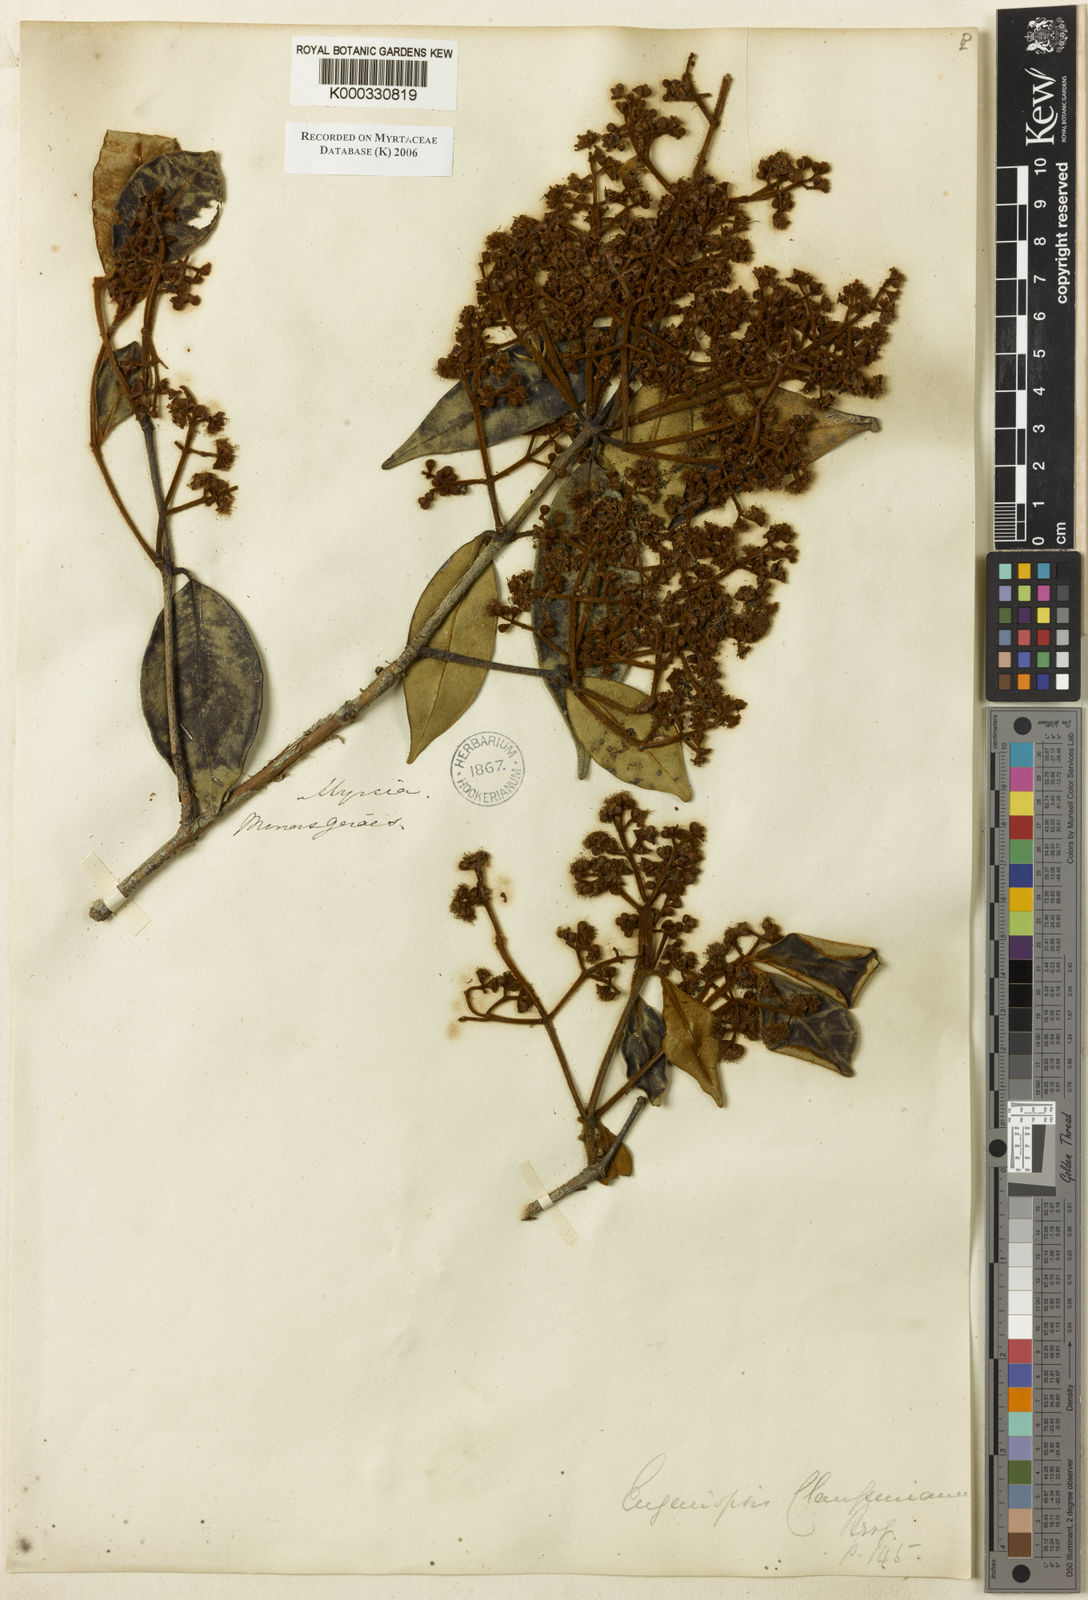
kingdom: Plantae
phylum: Tracheophyta
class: Magnoliopsida
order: Myrtales
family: Myrtaceae
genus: Marlierea
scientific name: Marlierea clausseniana
